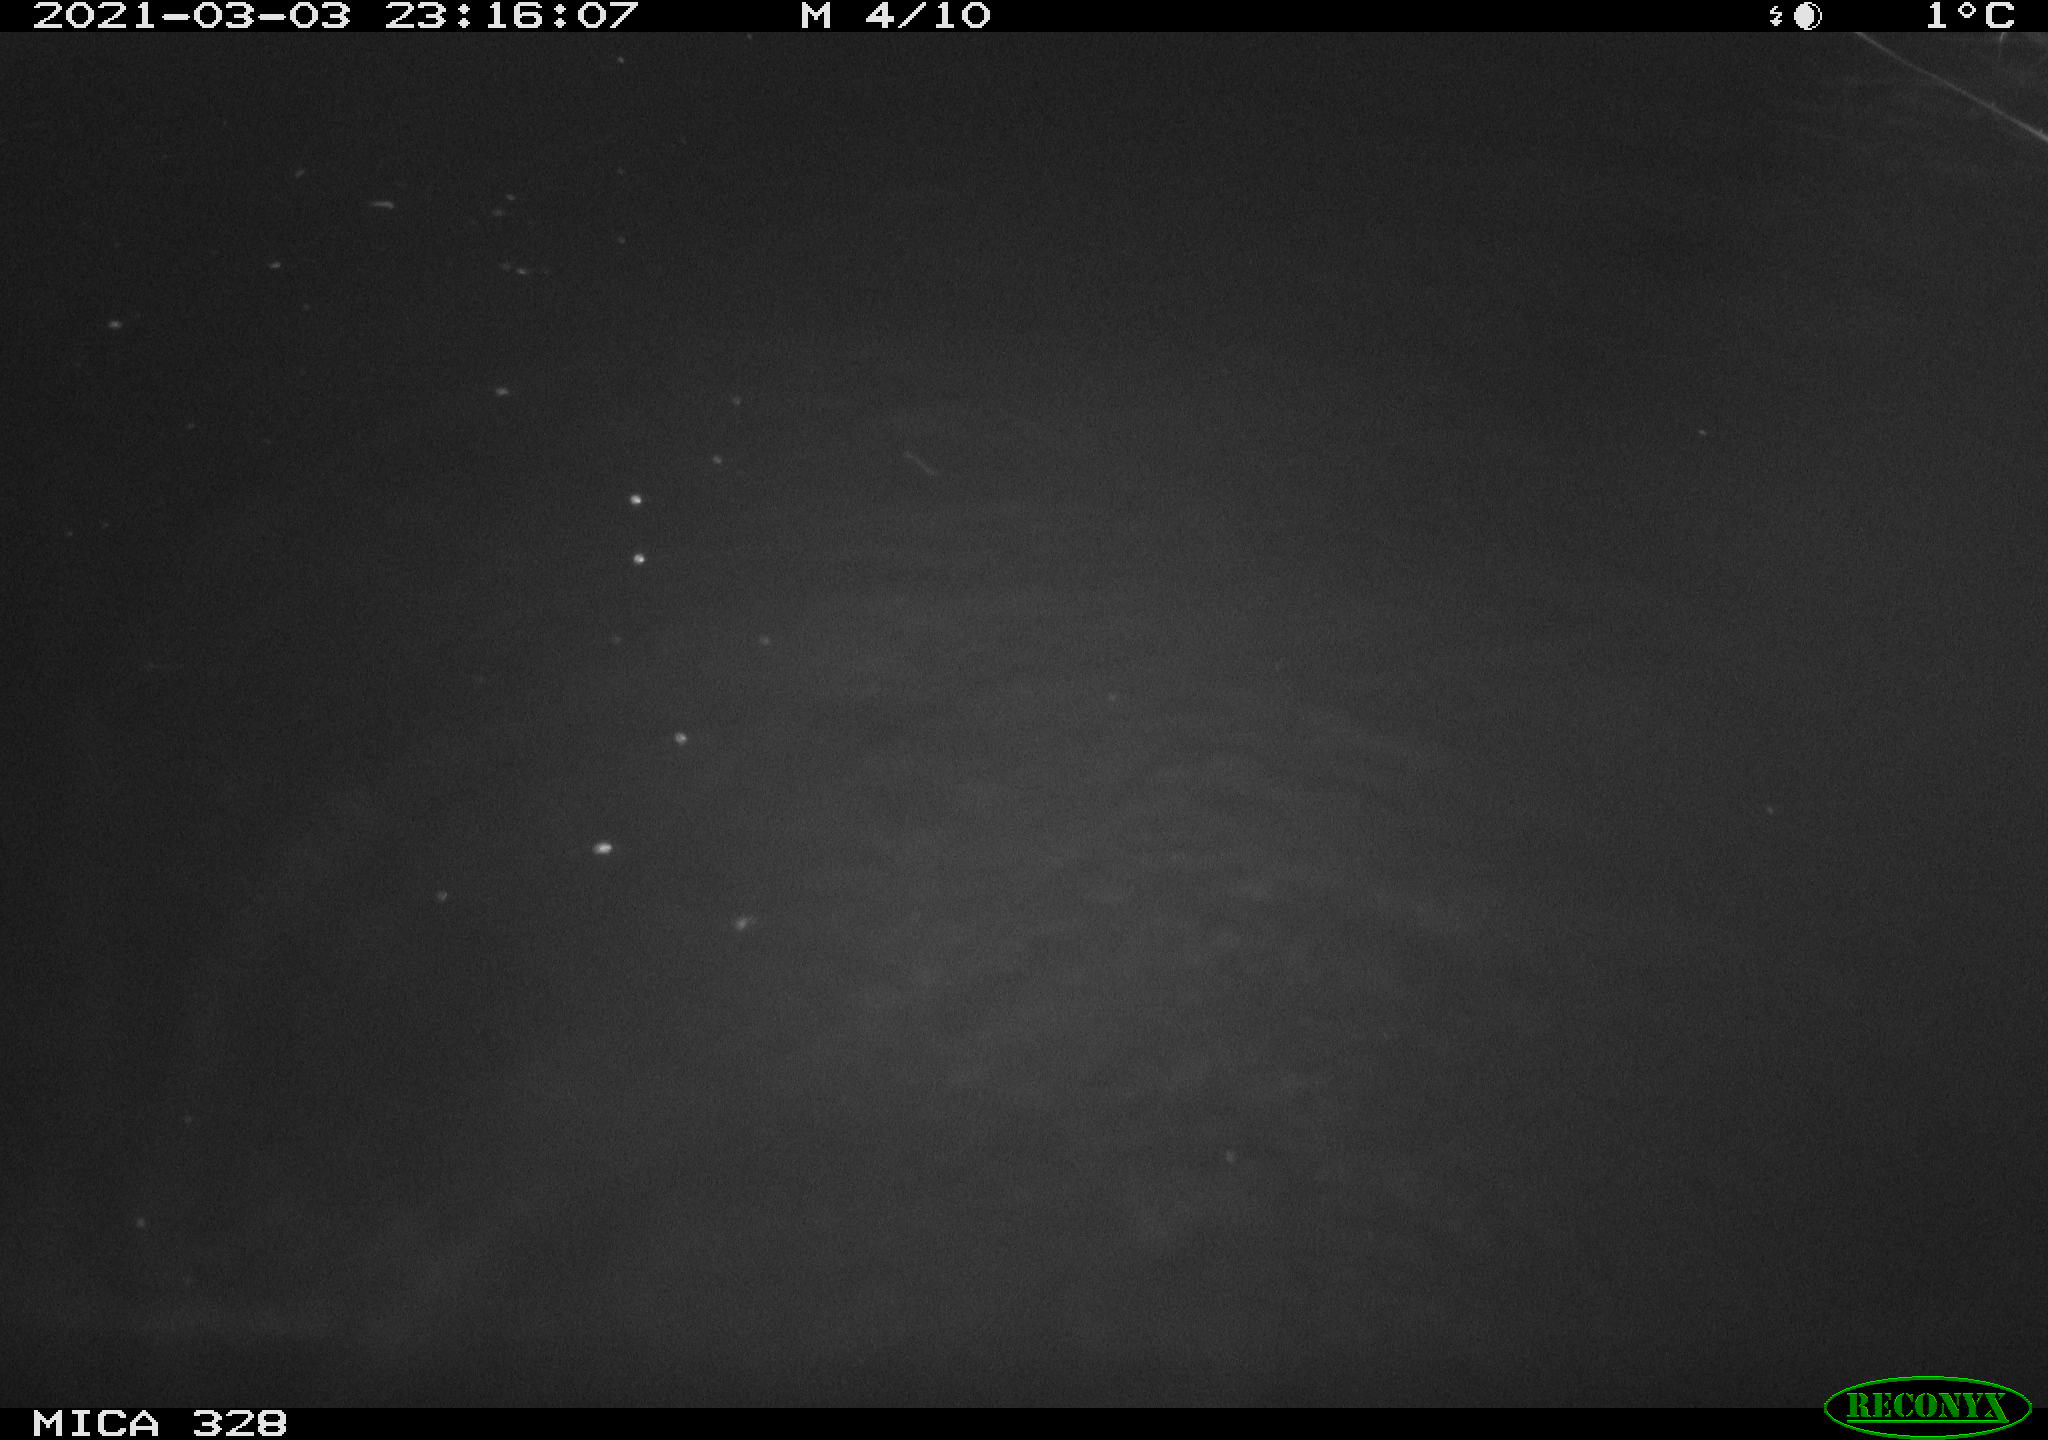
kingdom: Animalia
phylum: Chordata
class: Mammalia
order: Rodentia
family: Cricetidae
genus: Ondatra
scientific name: Ondatra zibethicus
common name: Muskrat
